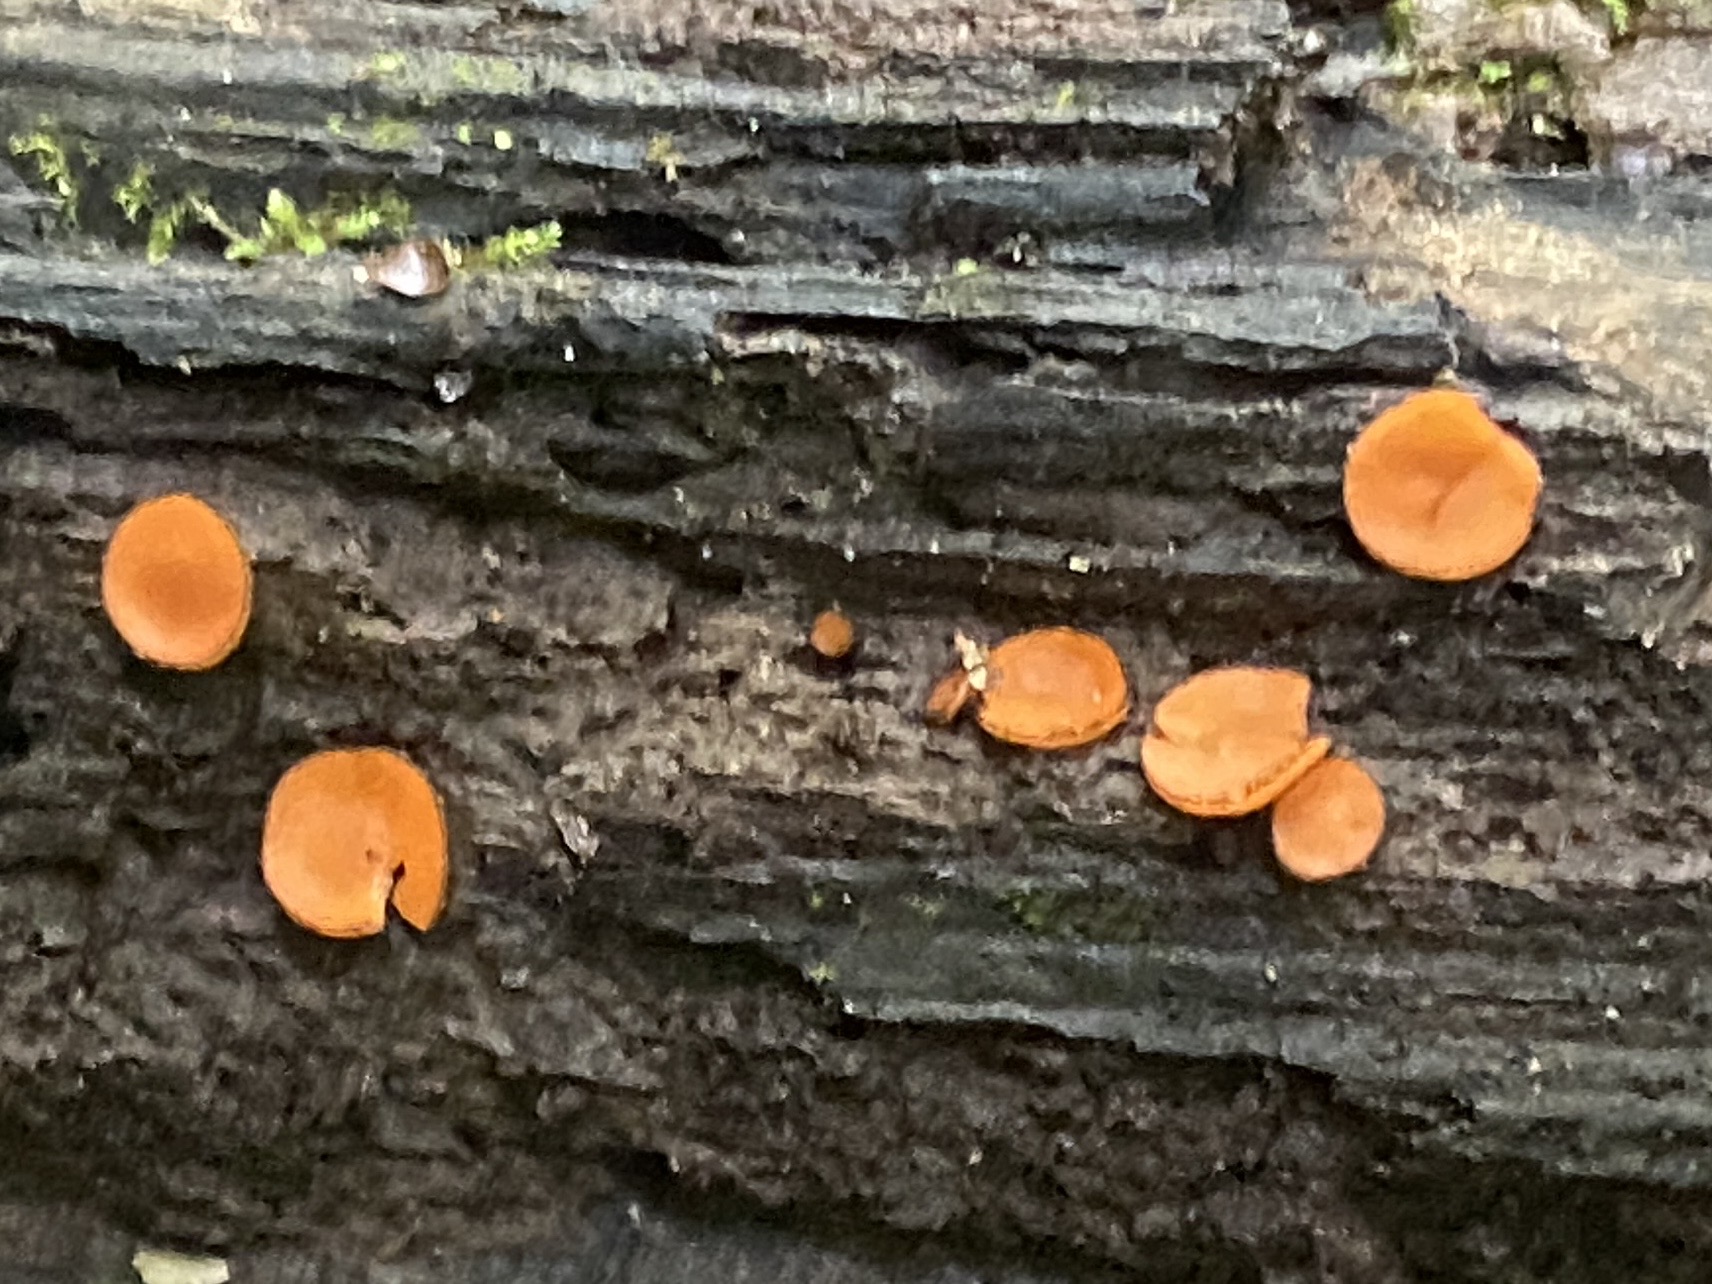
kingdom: Fungi
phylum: Ascomycota
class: Pezizomycetes
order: Pezizales
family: Pyronemataceae
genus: Scutellinia
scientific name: Scutellinia
